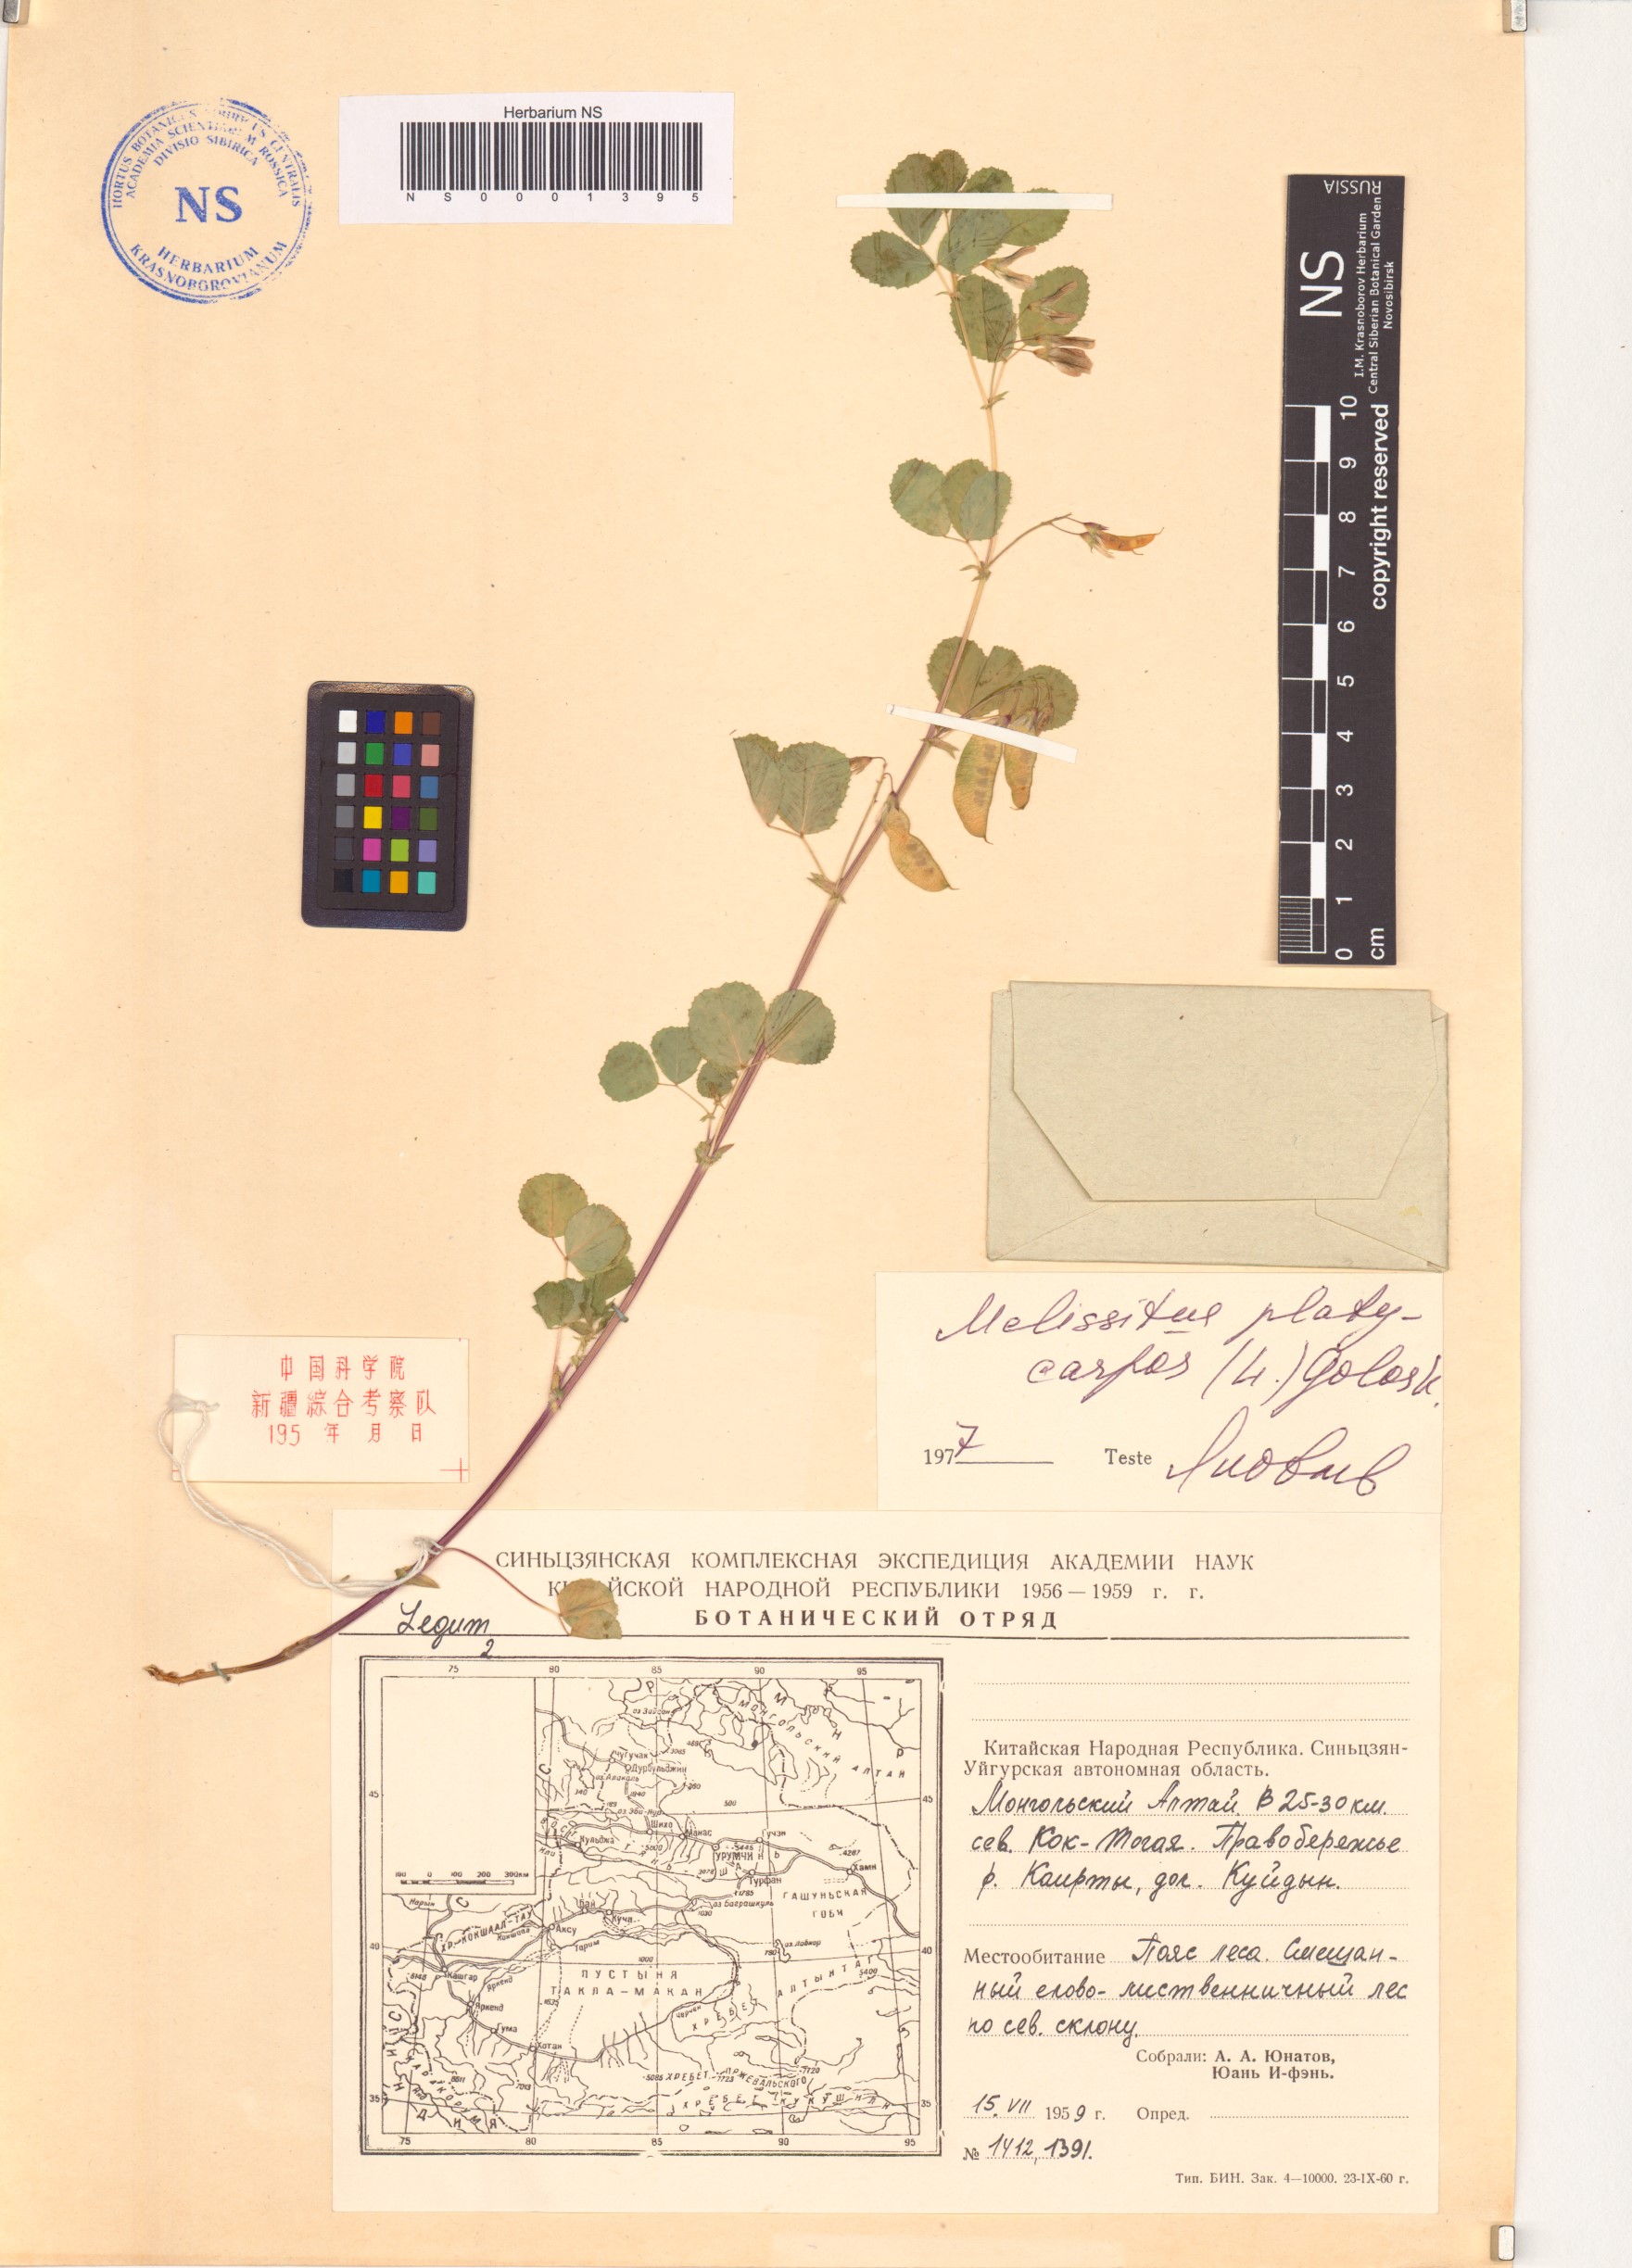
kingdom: Plantae
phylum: Tracheophyta
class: Magnoliopsida
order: Fabales
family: Fabaceae
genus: Medicago
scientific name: Medicago platycarpos
